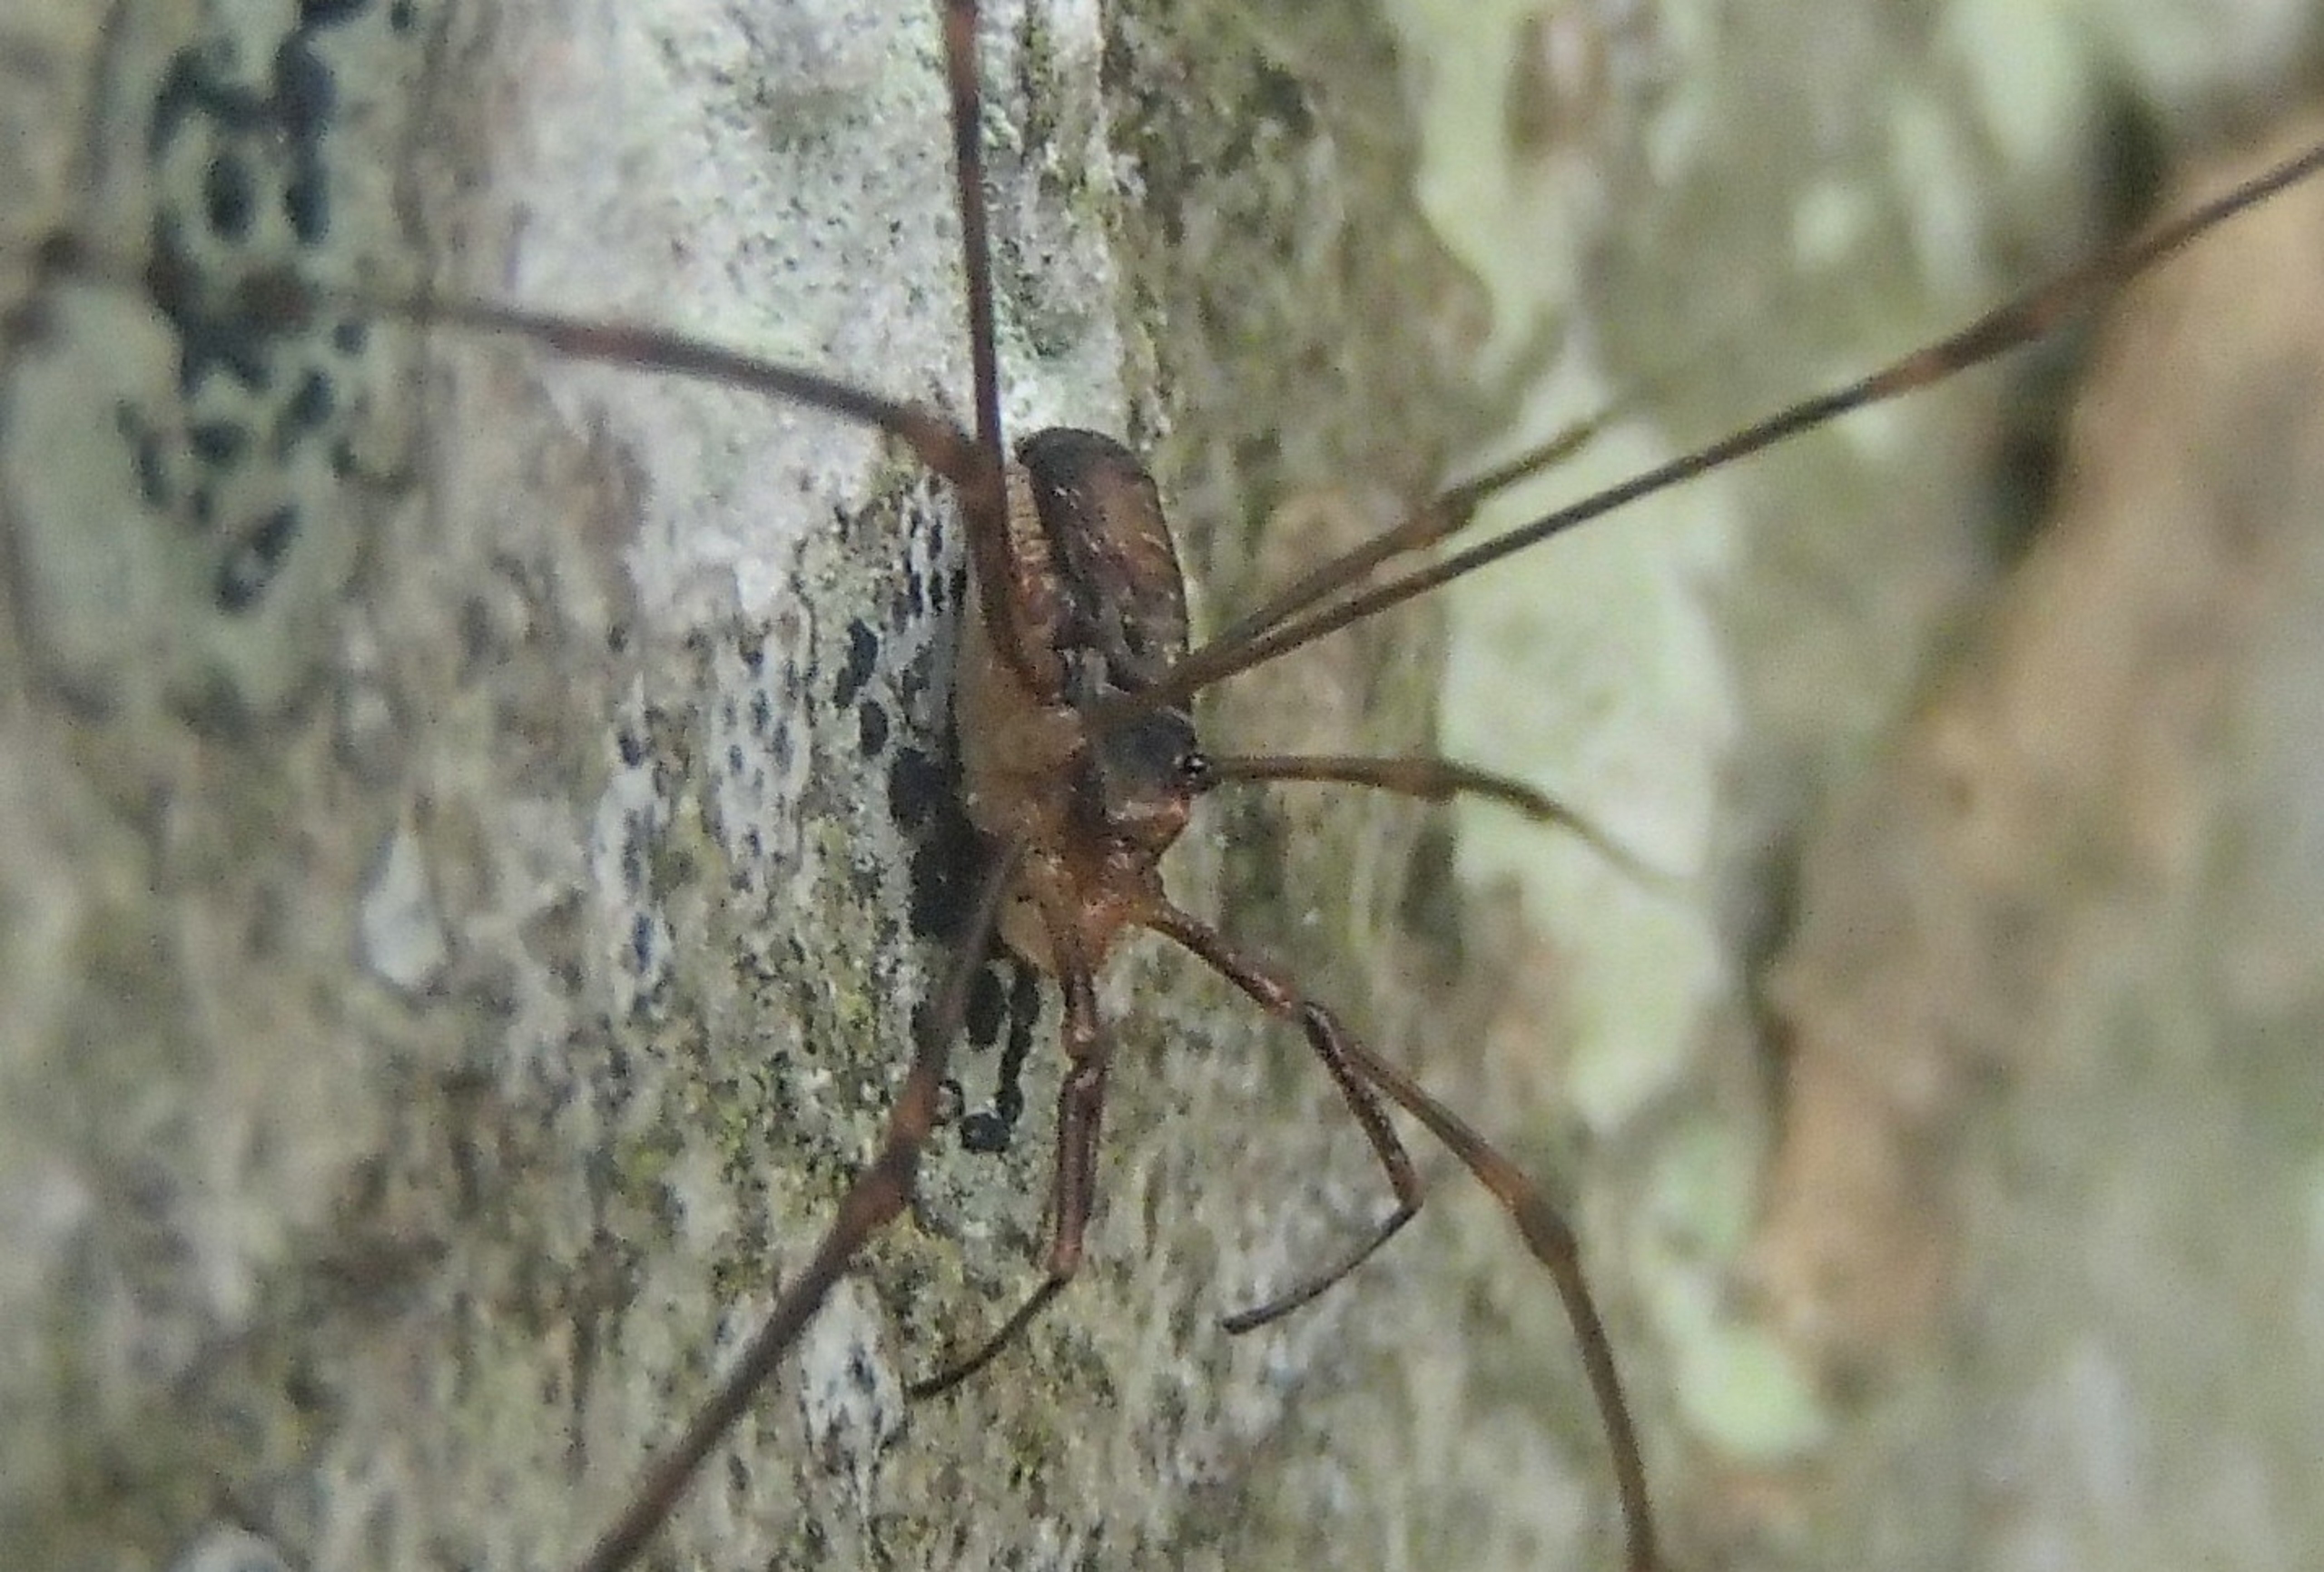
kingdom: Animalia
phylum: Arthropoda
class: Arachnida
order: Opiliones
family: Phalangiidae
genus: Dicranopalpus
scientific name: Dicranopalpus ramosus
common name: Gaffelmejer
